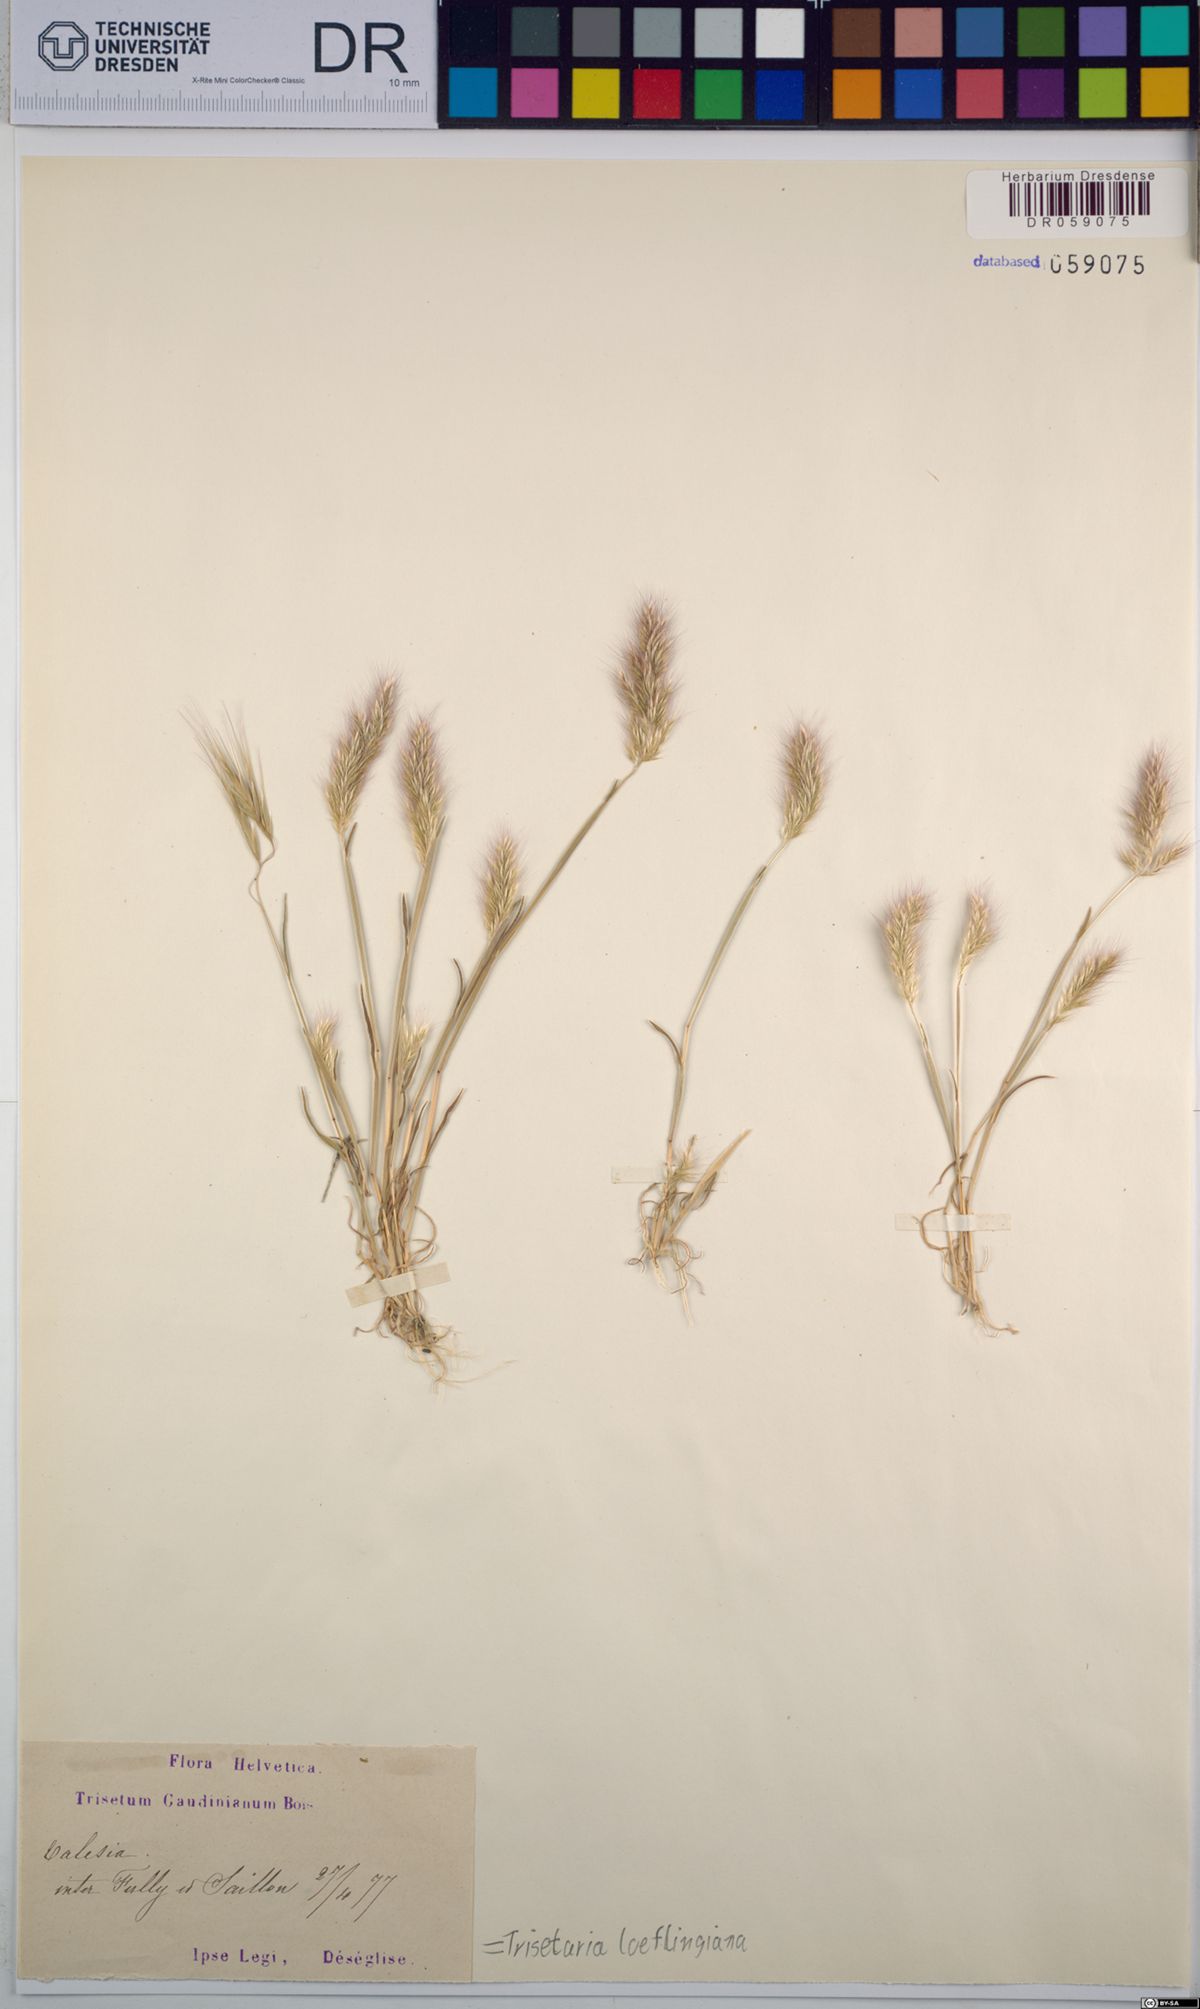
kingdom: Plantae
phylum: Tracheophyta
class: Liliopsida
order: Poales
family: Poaceae
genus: Trisetaria
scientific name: Trisetaria loeflingiana
